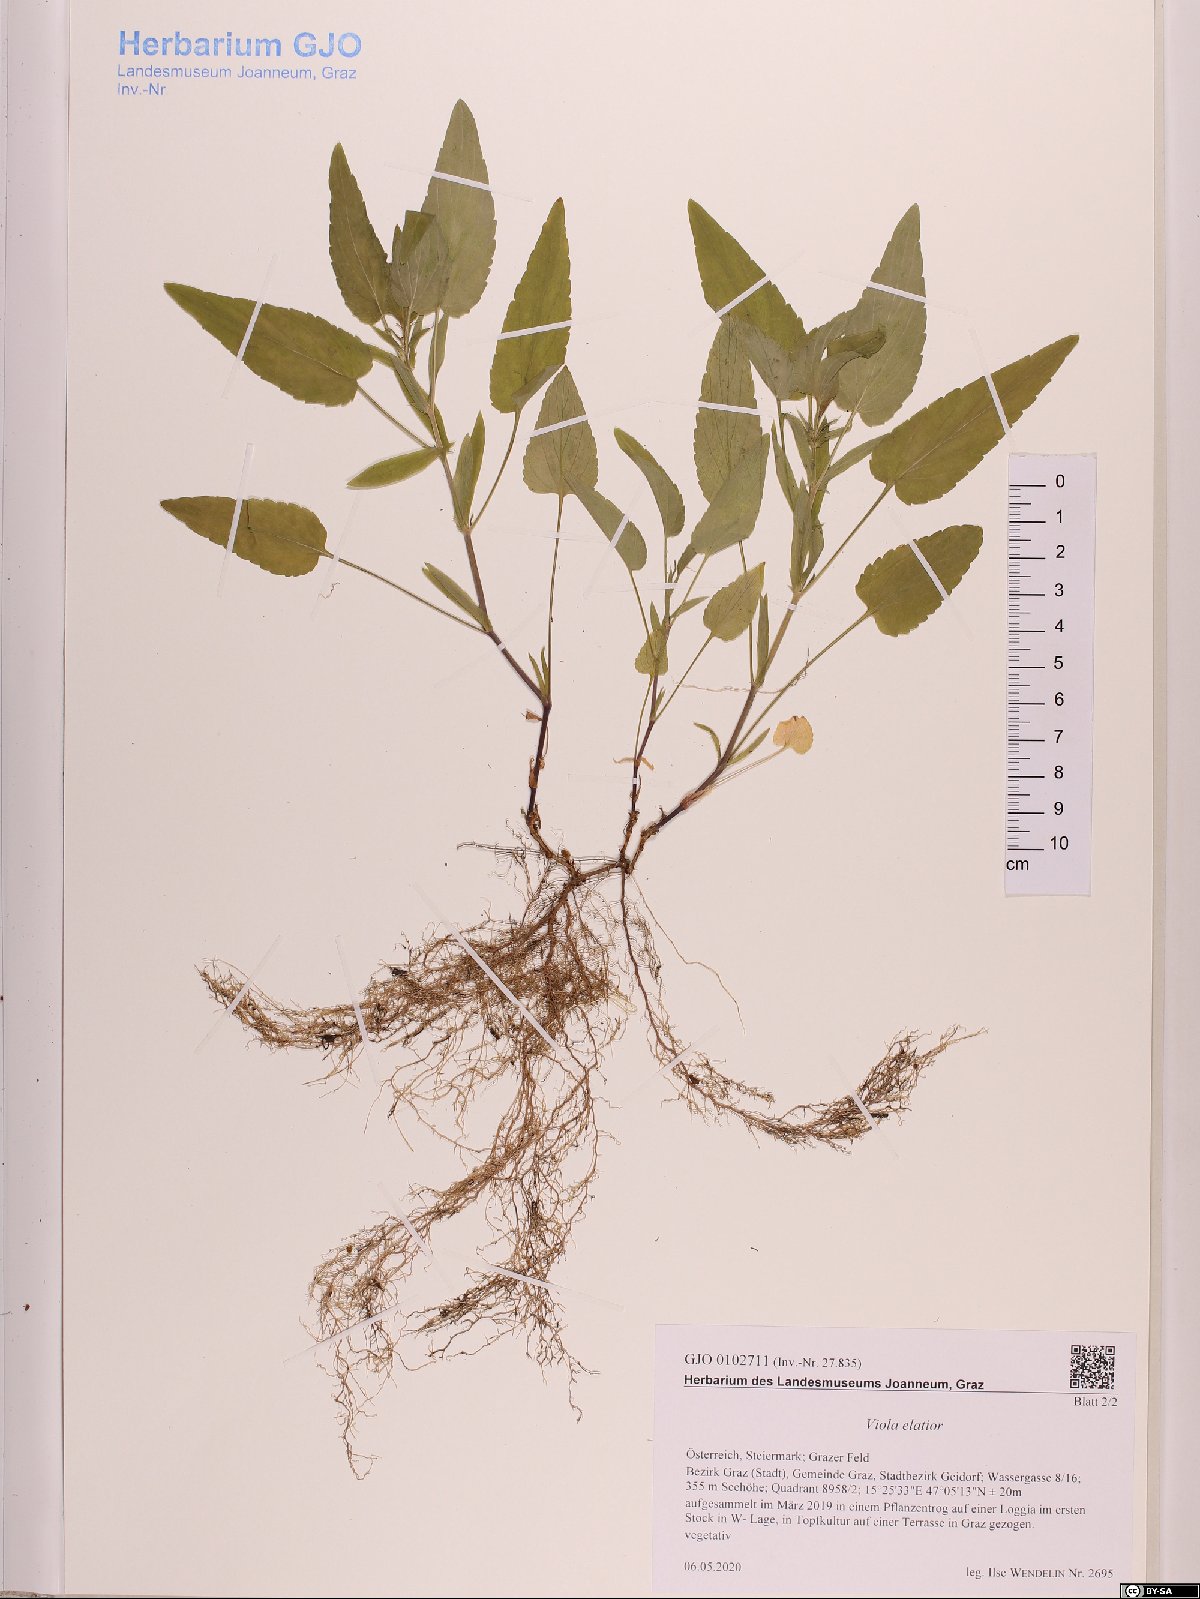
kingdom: Plantae
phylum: Tracheophyta
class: Magnoliopsida
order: Malpighiales
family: Violaceae
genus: Viola
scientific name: Viola elatior
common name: Tall violet
